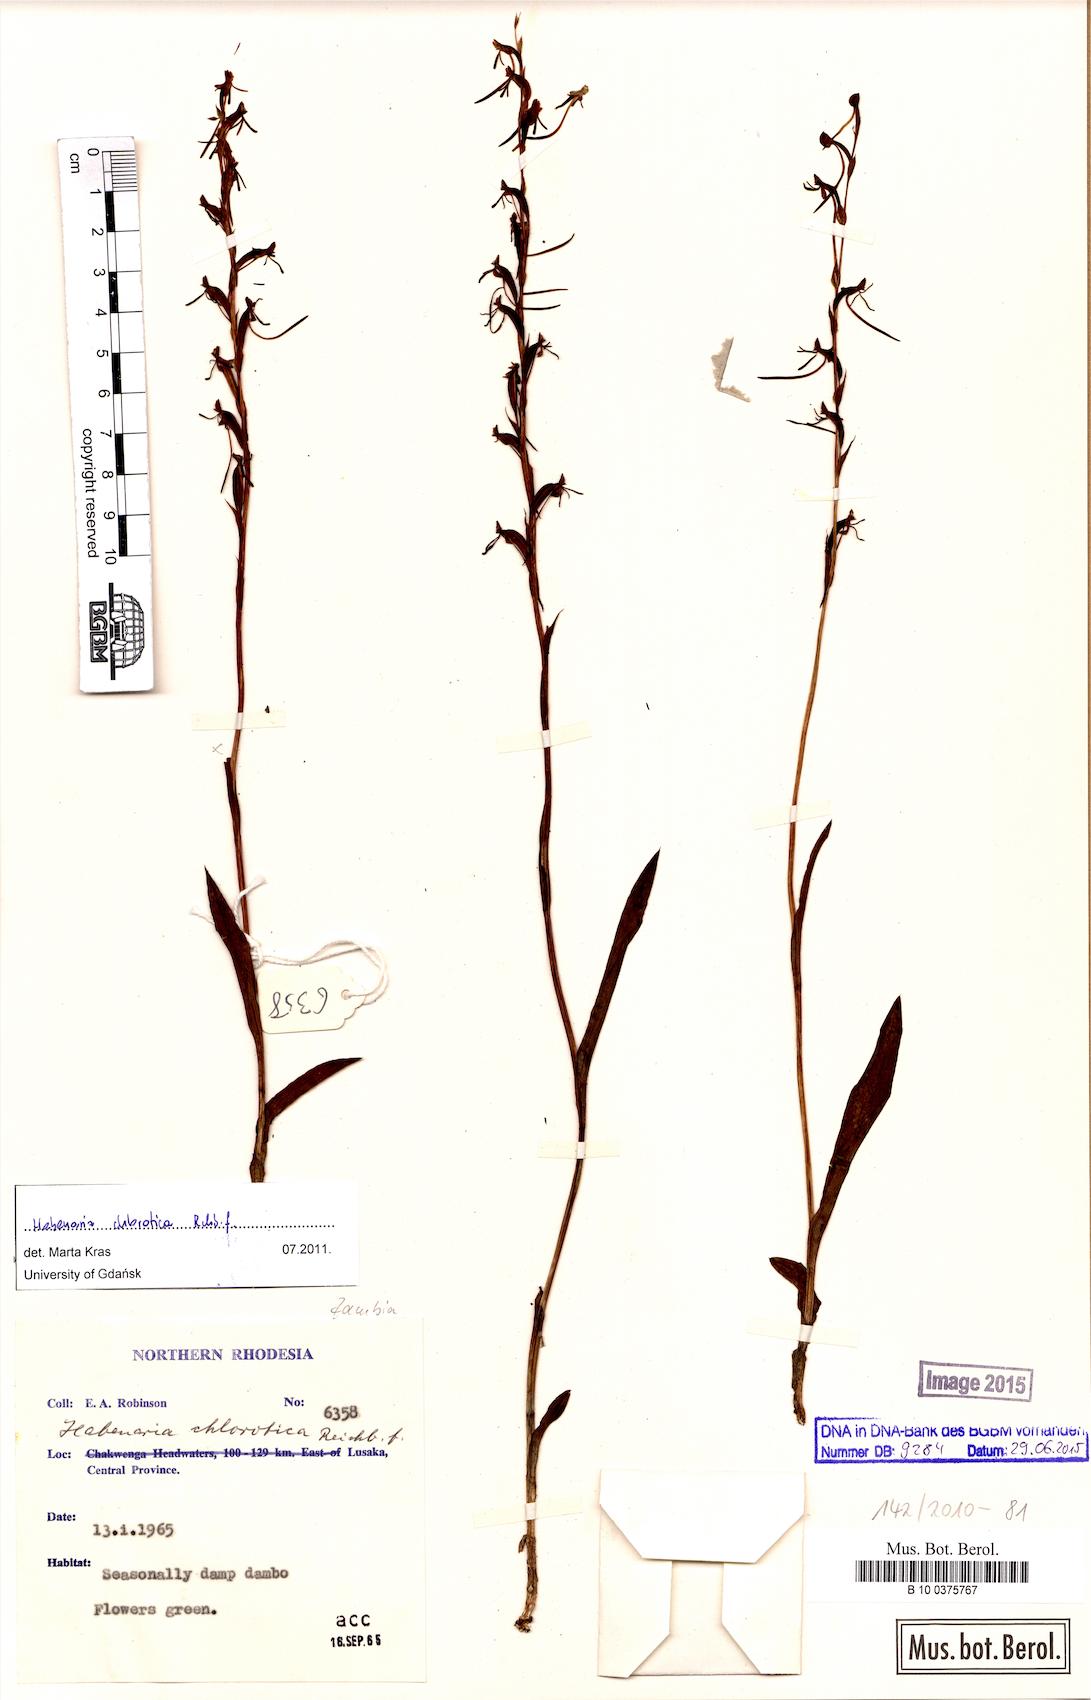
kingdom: Plantae
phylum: Tracheophyta
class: Liliopsida
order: Asparagales
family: Orchidaceae
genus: Habenaria
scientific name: Habenaria filicornis
